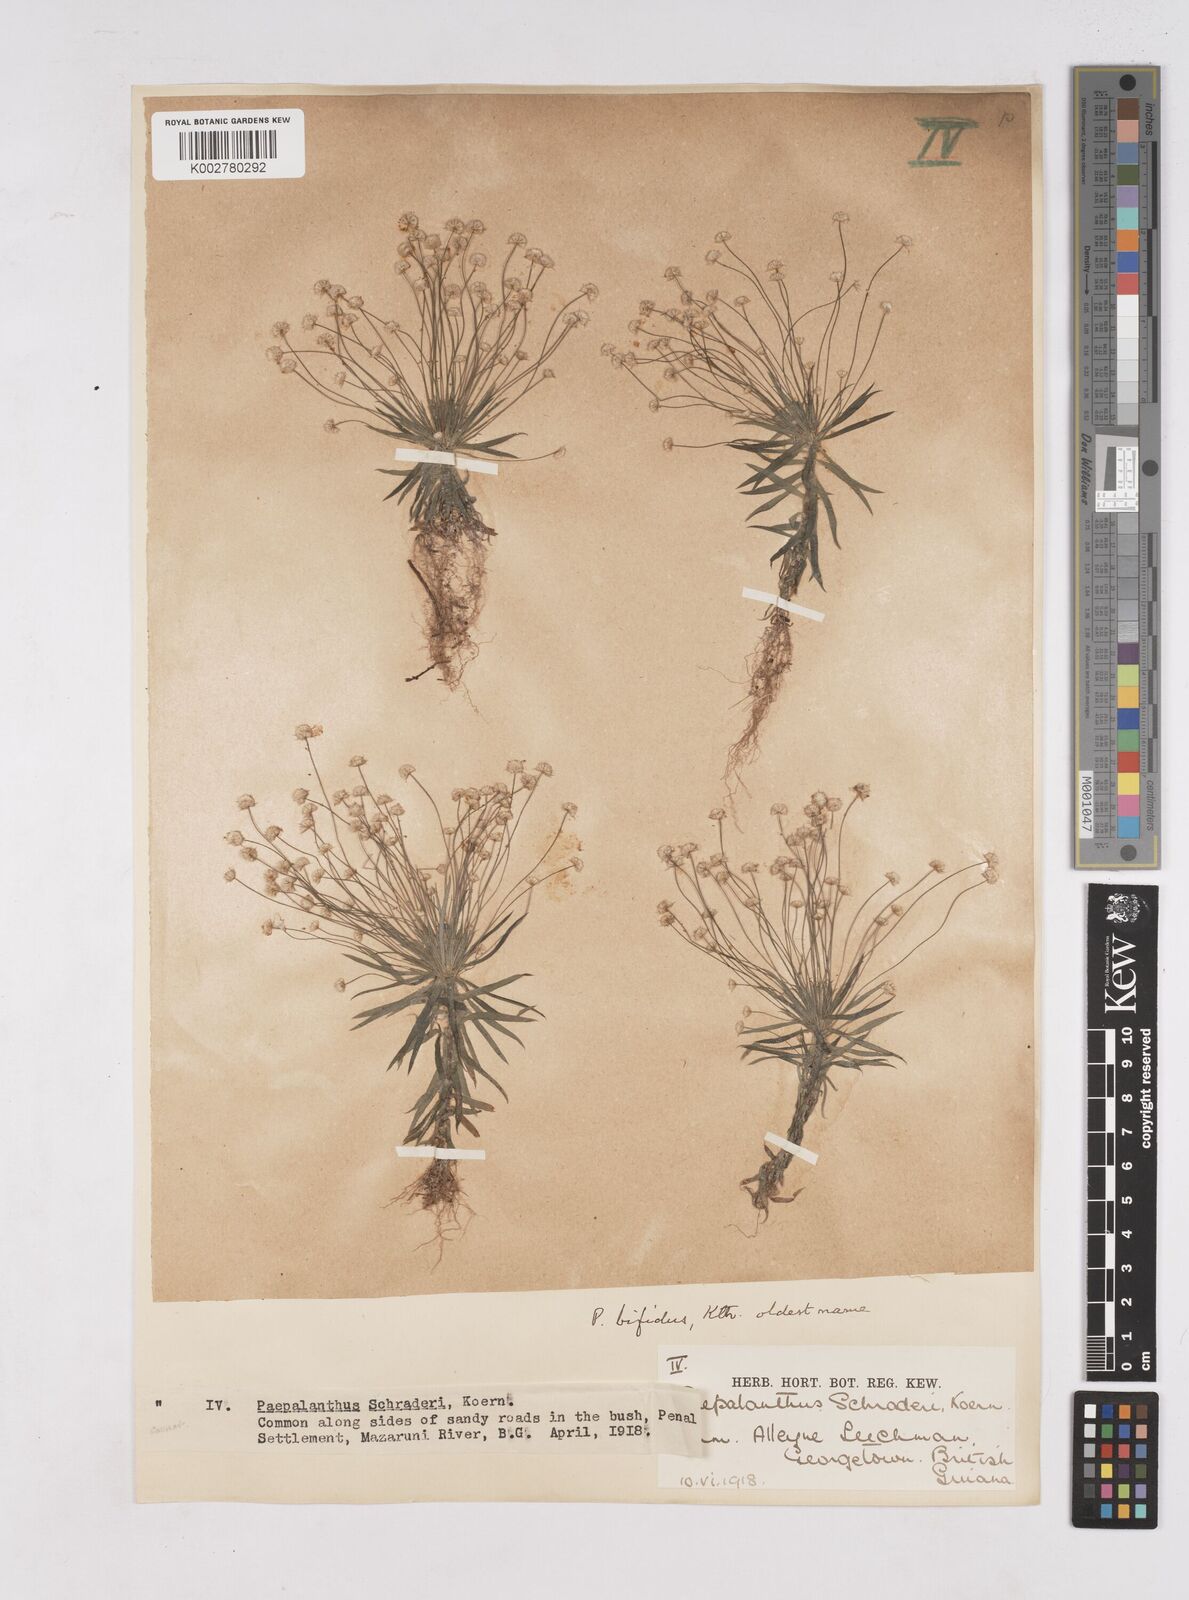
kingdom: Plantae
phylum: Tracheophyta
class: Liliopsida
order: Poales
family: Eriocaulaceae
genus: Paepalanthus
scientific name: Paepalanthus bifidus
